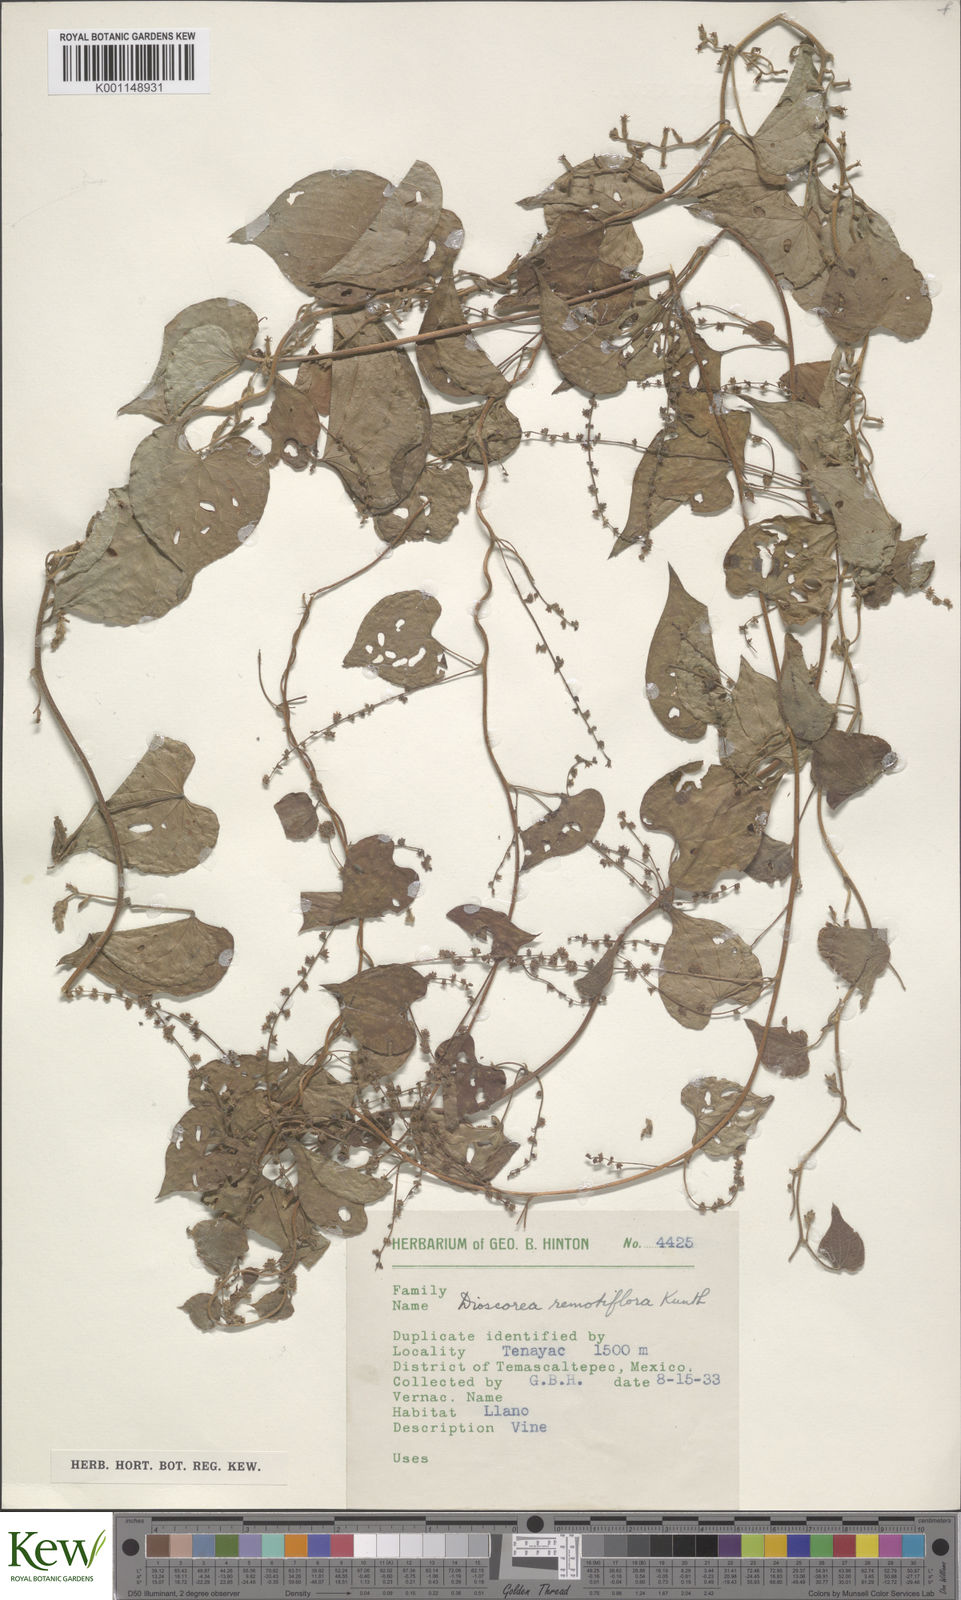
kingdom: Plantae
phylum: Tracheophyta
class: Liliopsida
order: Dioscoreales
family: Dioscoreaceae
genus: Dioscorea
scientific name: Dioscorea remotiflora
